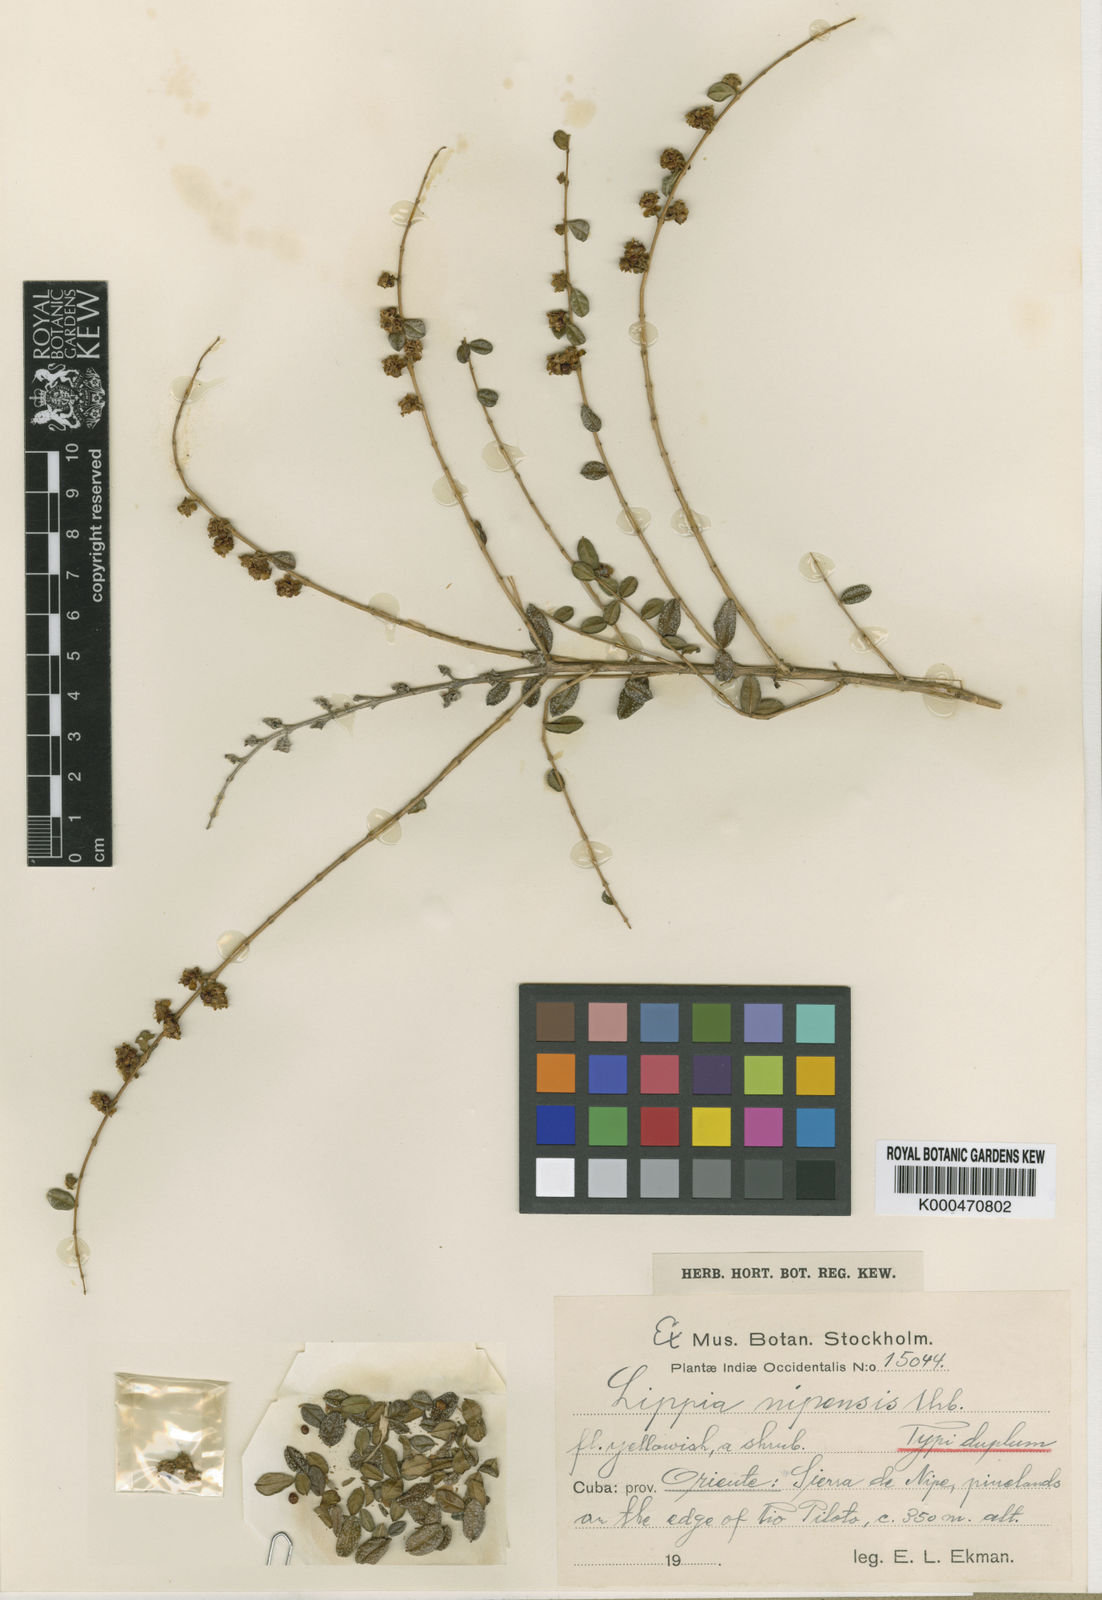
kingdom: Plantae
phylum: Tracheophyta
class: Magnoliopsida
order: Lamiales
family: Verbenaceae
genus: Diphyllocalyx
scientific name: Diphyllocalyx nipensis
